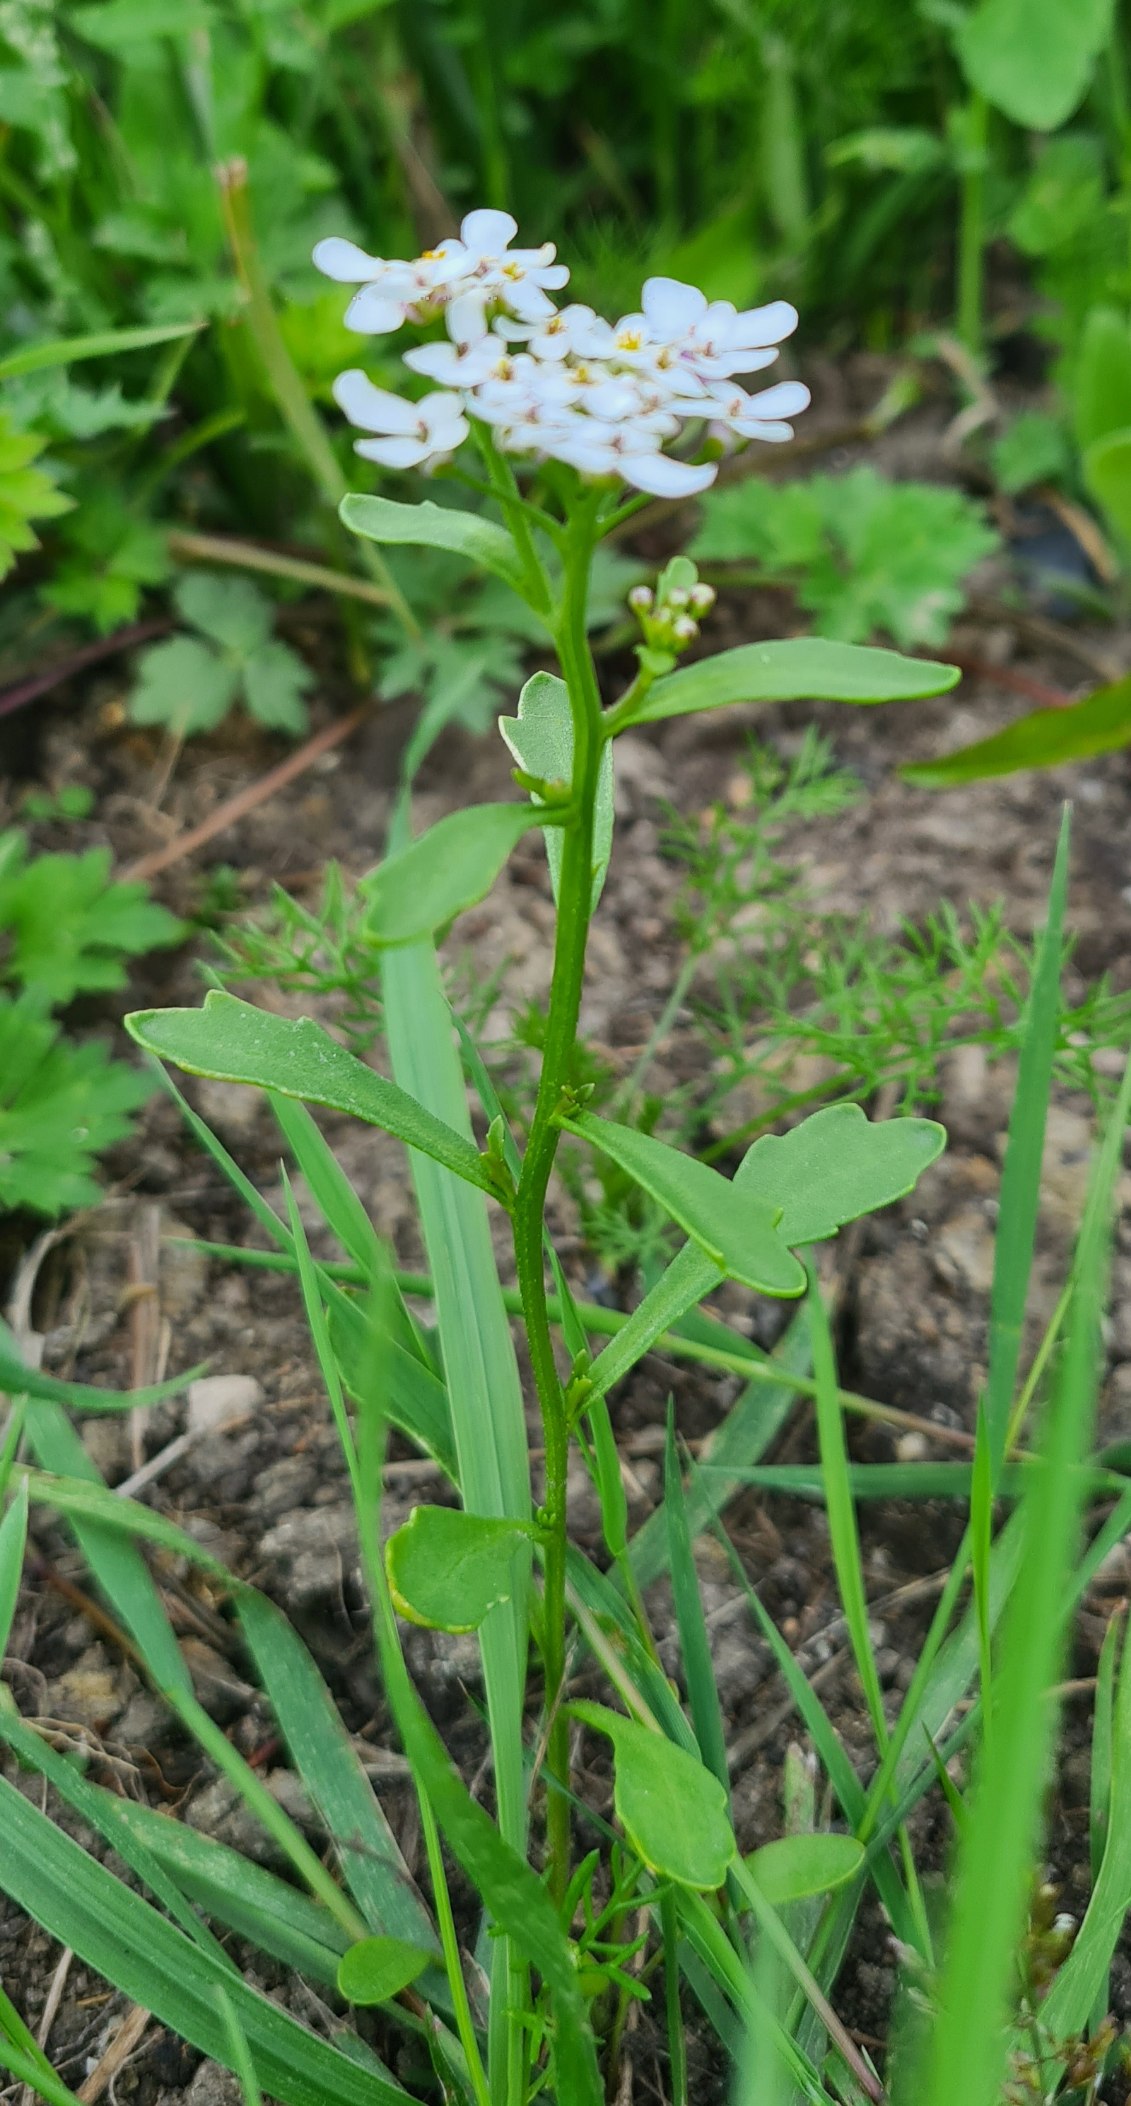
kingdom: Plantae
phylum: Tracheophyta
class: Magnoliopsida
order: Brassicales
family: Brassicaceae
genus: Iberis
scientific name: Iberis amara
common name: Hvid sløjfeblomst
